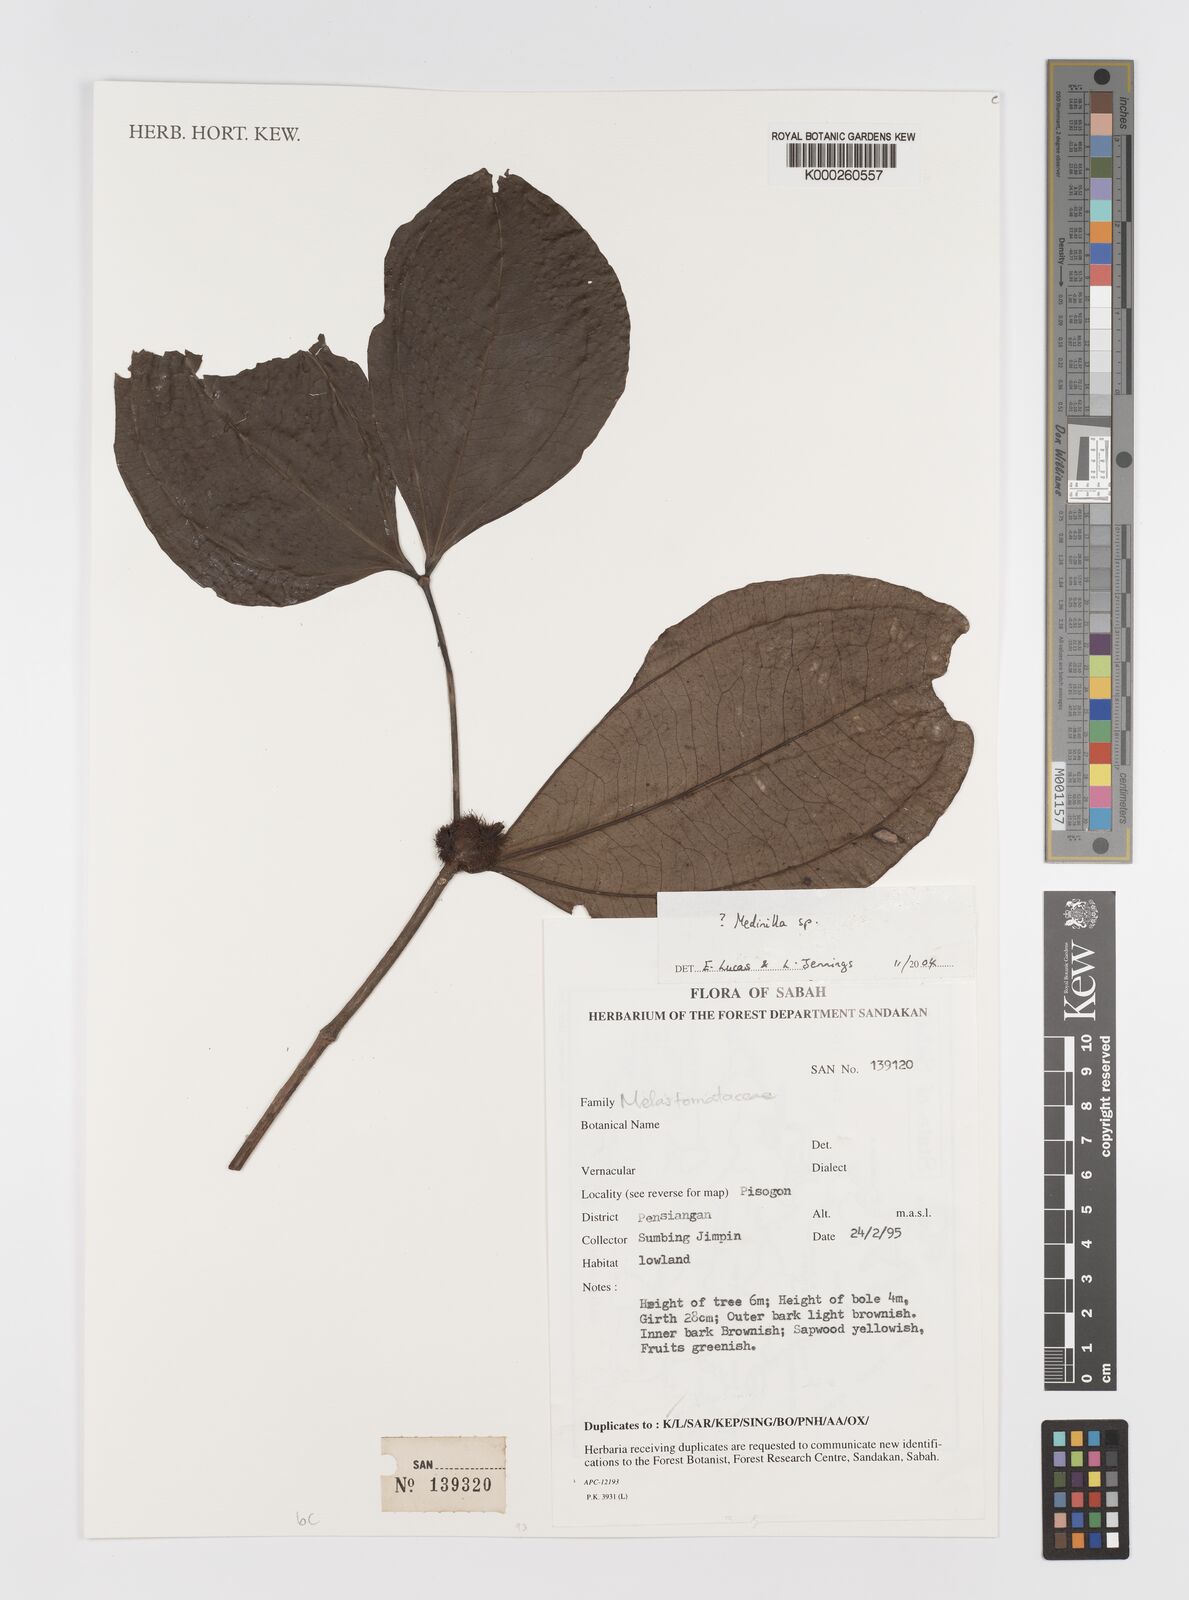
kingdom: Plantae
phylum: Tracheophyta
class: Magnoliopsida
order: Myrtales
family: Melastomataceae
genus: Medinilla
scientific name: Medinilla
